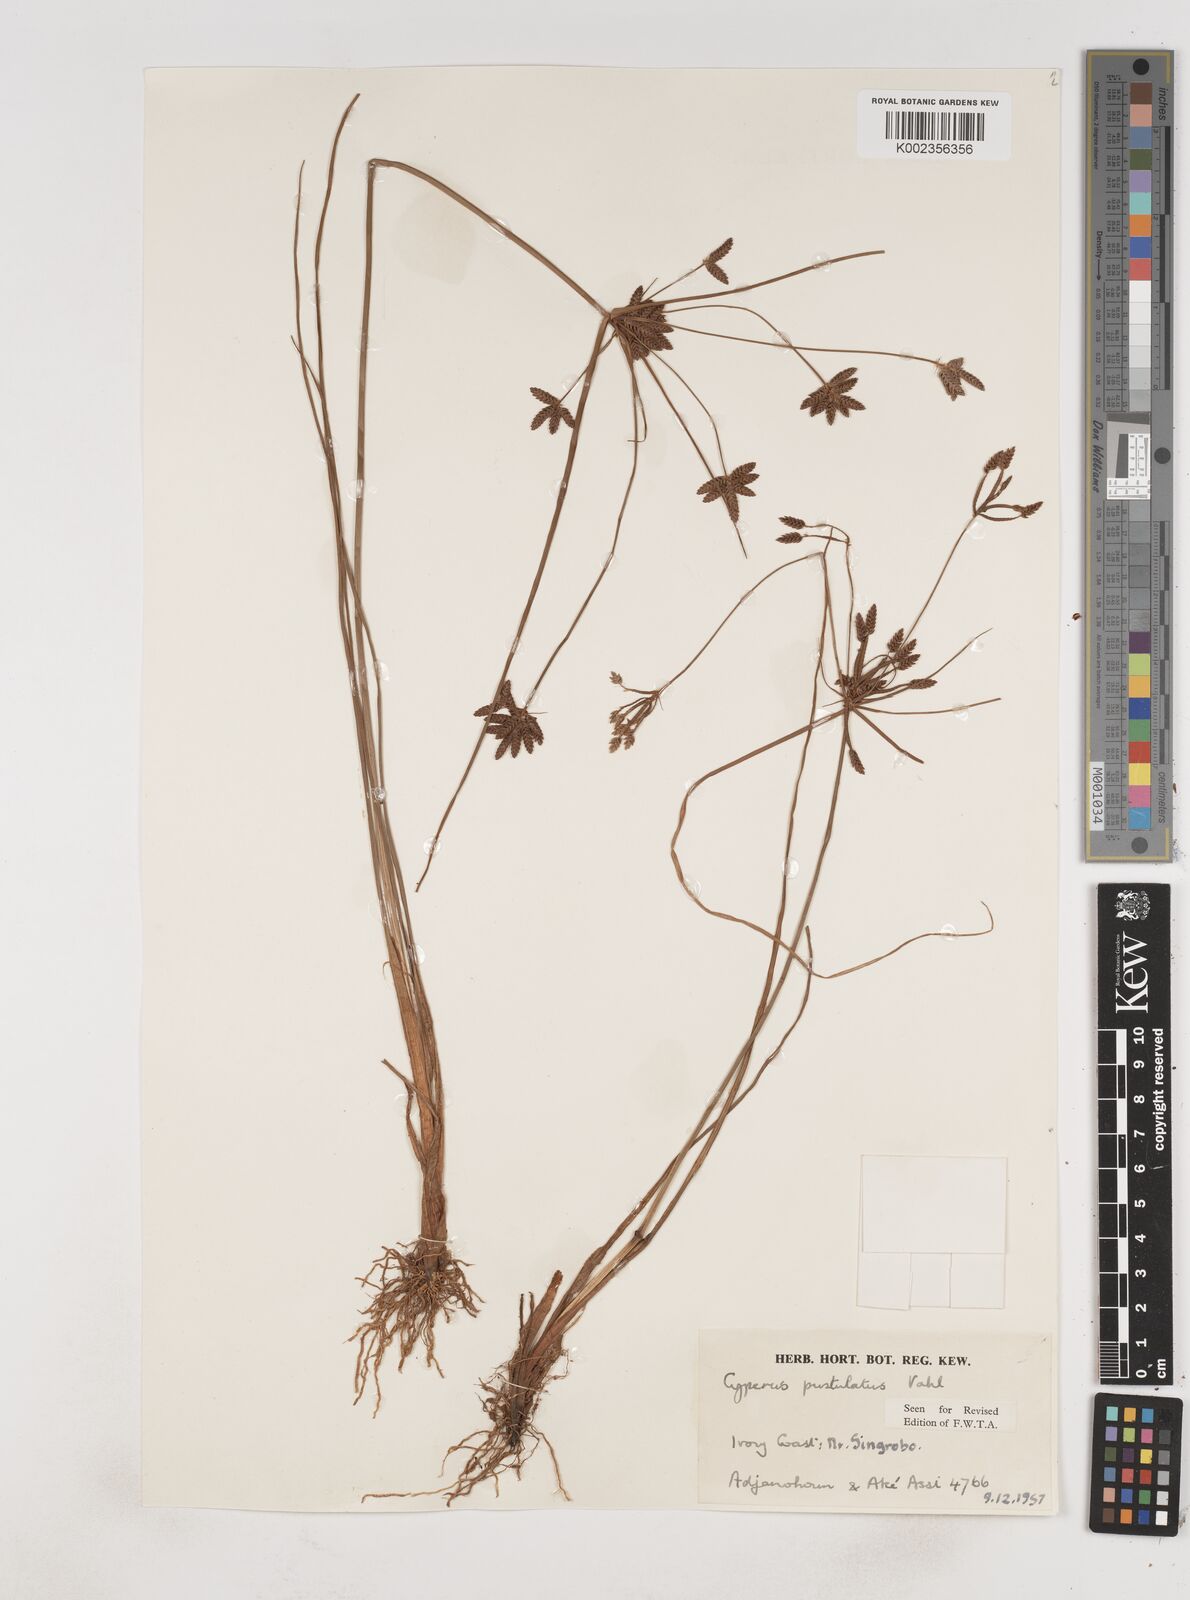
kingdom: Plantae
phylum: Tracheophyta
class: Liliopsida
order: Poales
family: Cyperaceae
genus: Cyperus
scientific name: Cyperus pustulatus
